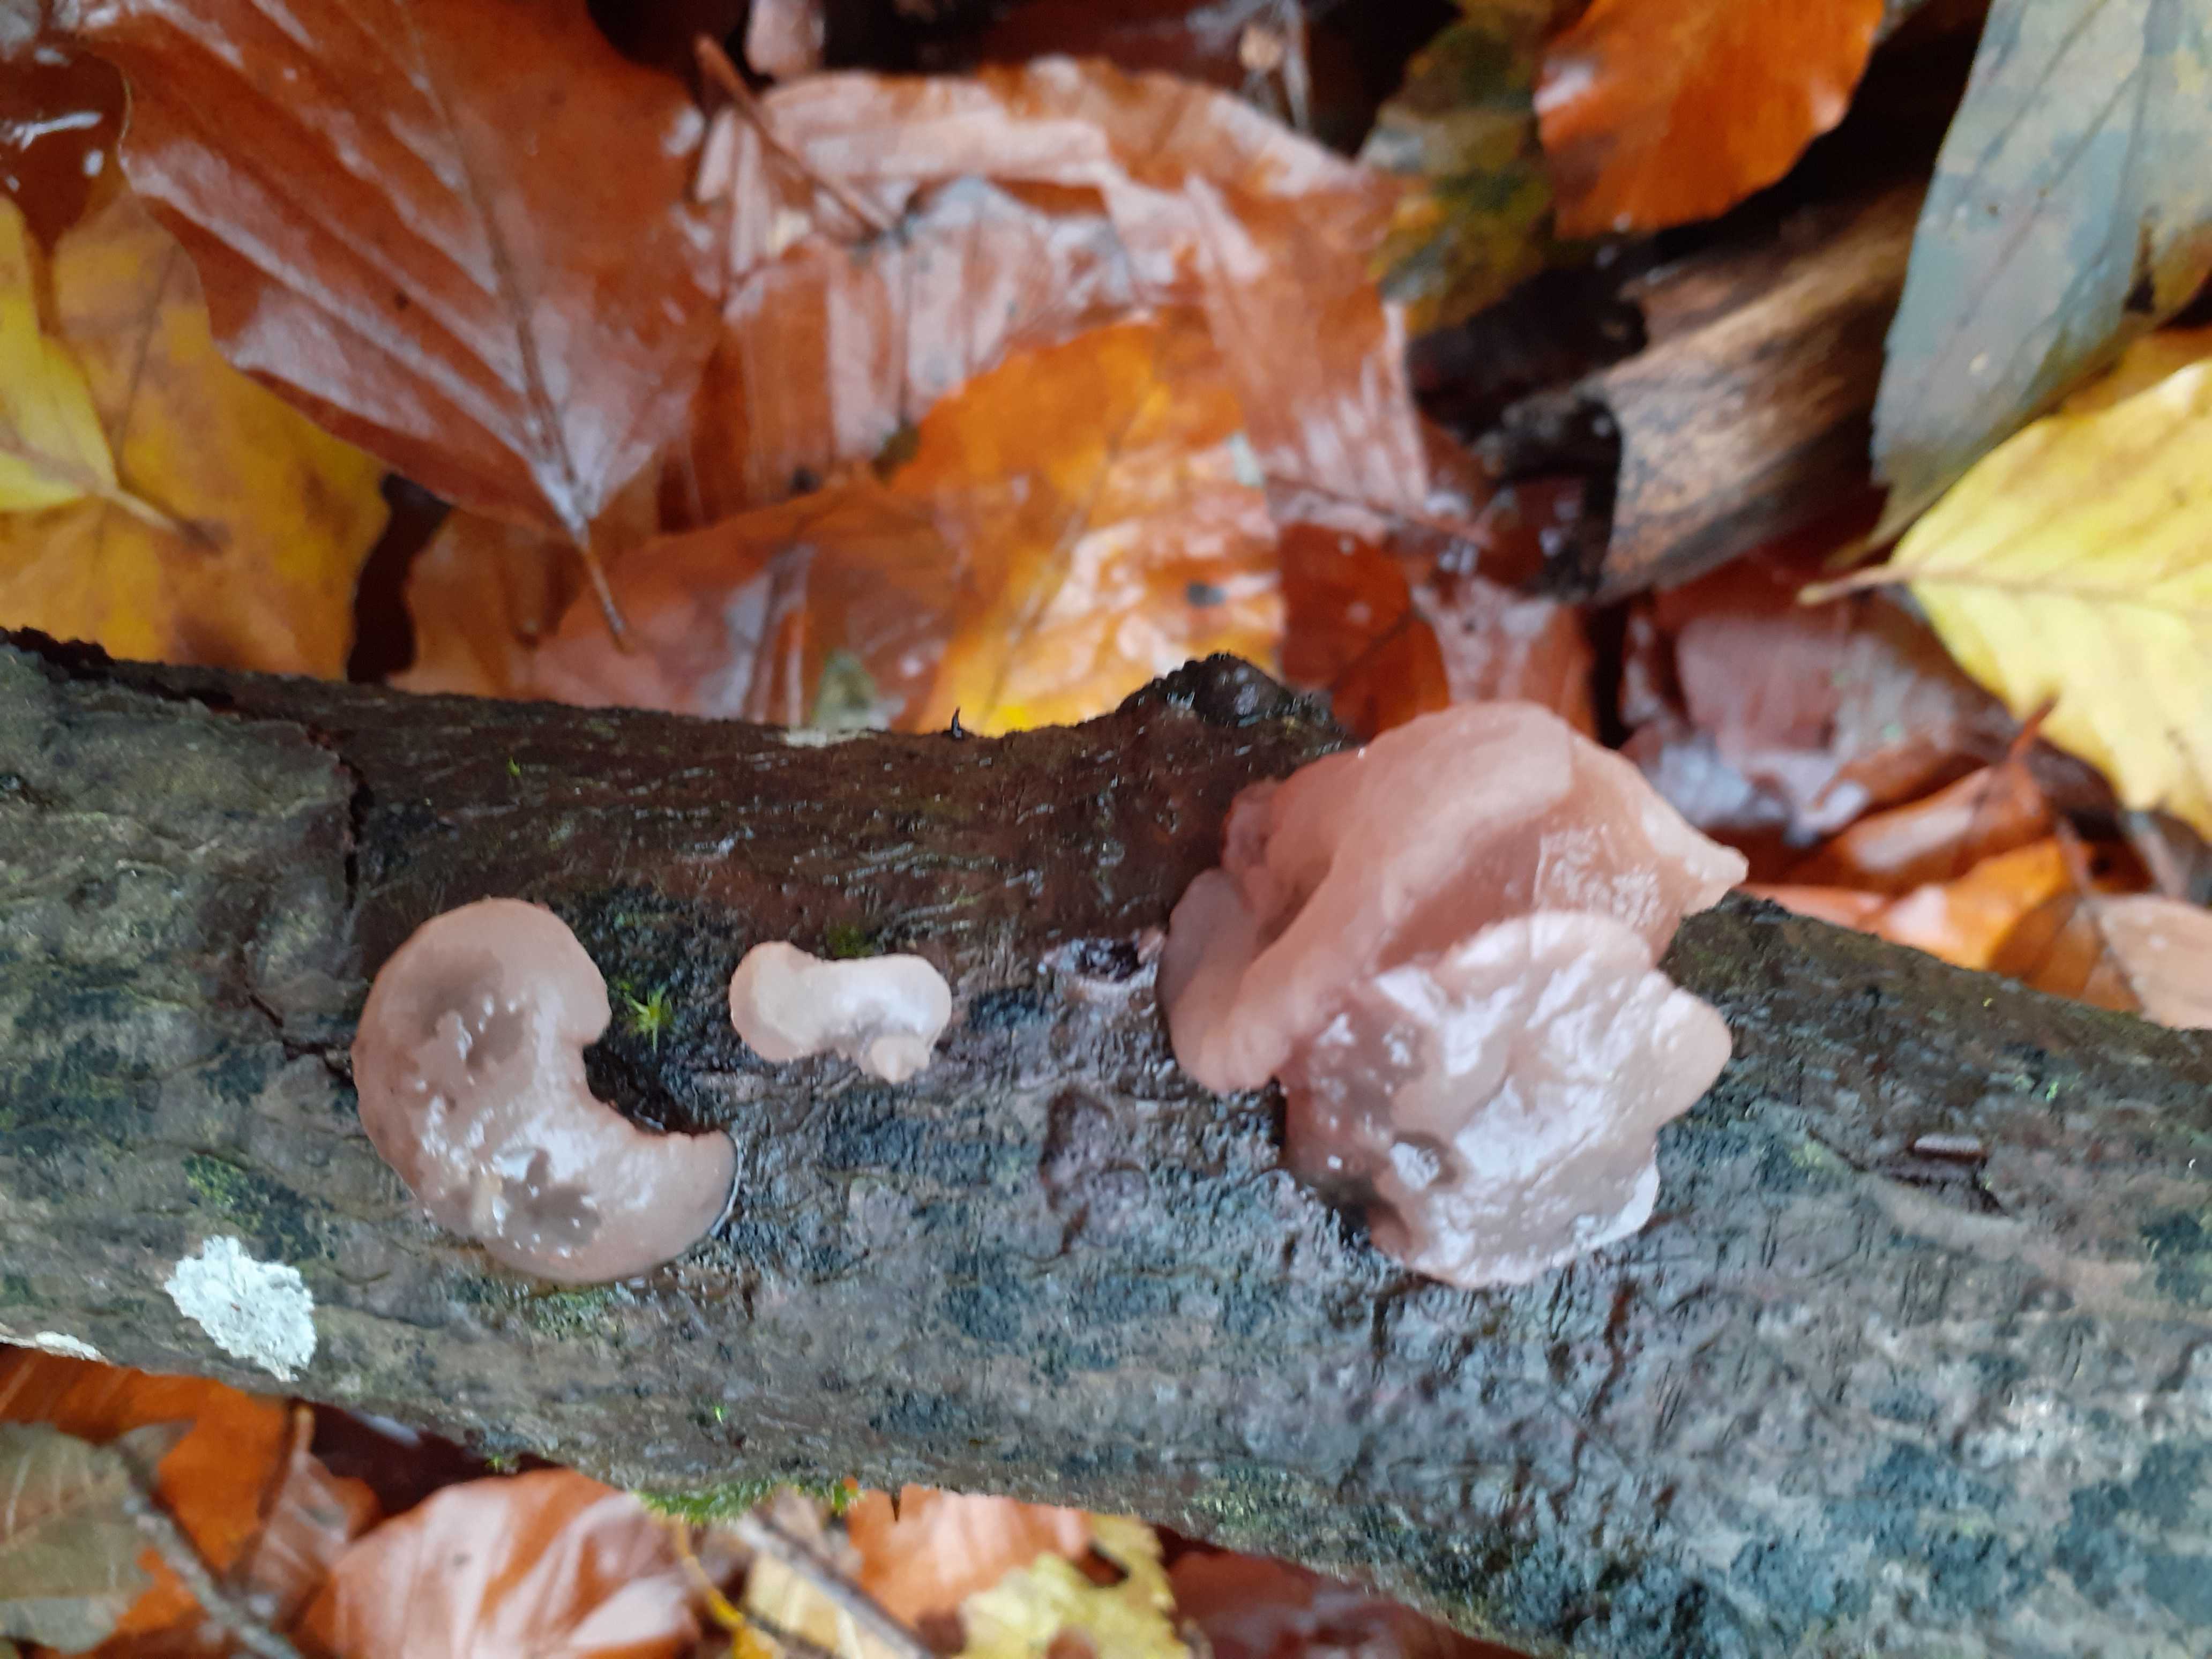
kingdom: Fungi
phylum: Ascomycota
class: Leotiomycetes
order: Helotiales
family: Gelatinodiscaceae
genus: Neobulgaria
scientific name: Neobulgaria pura
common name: bleg bævreskive
